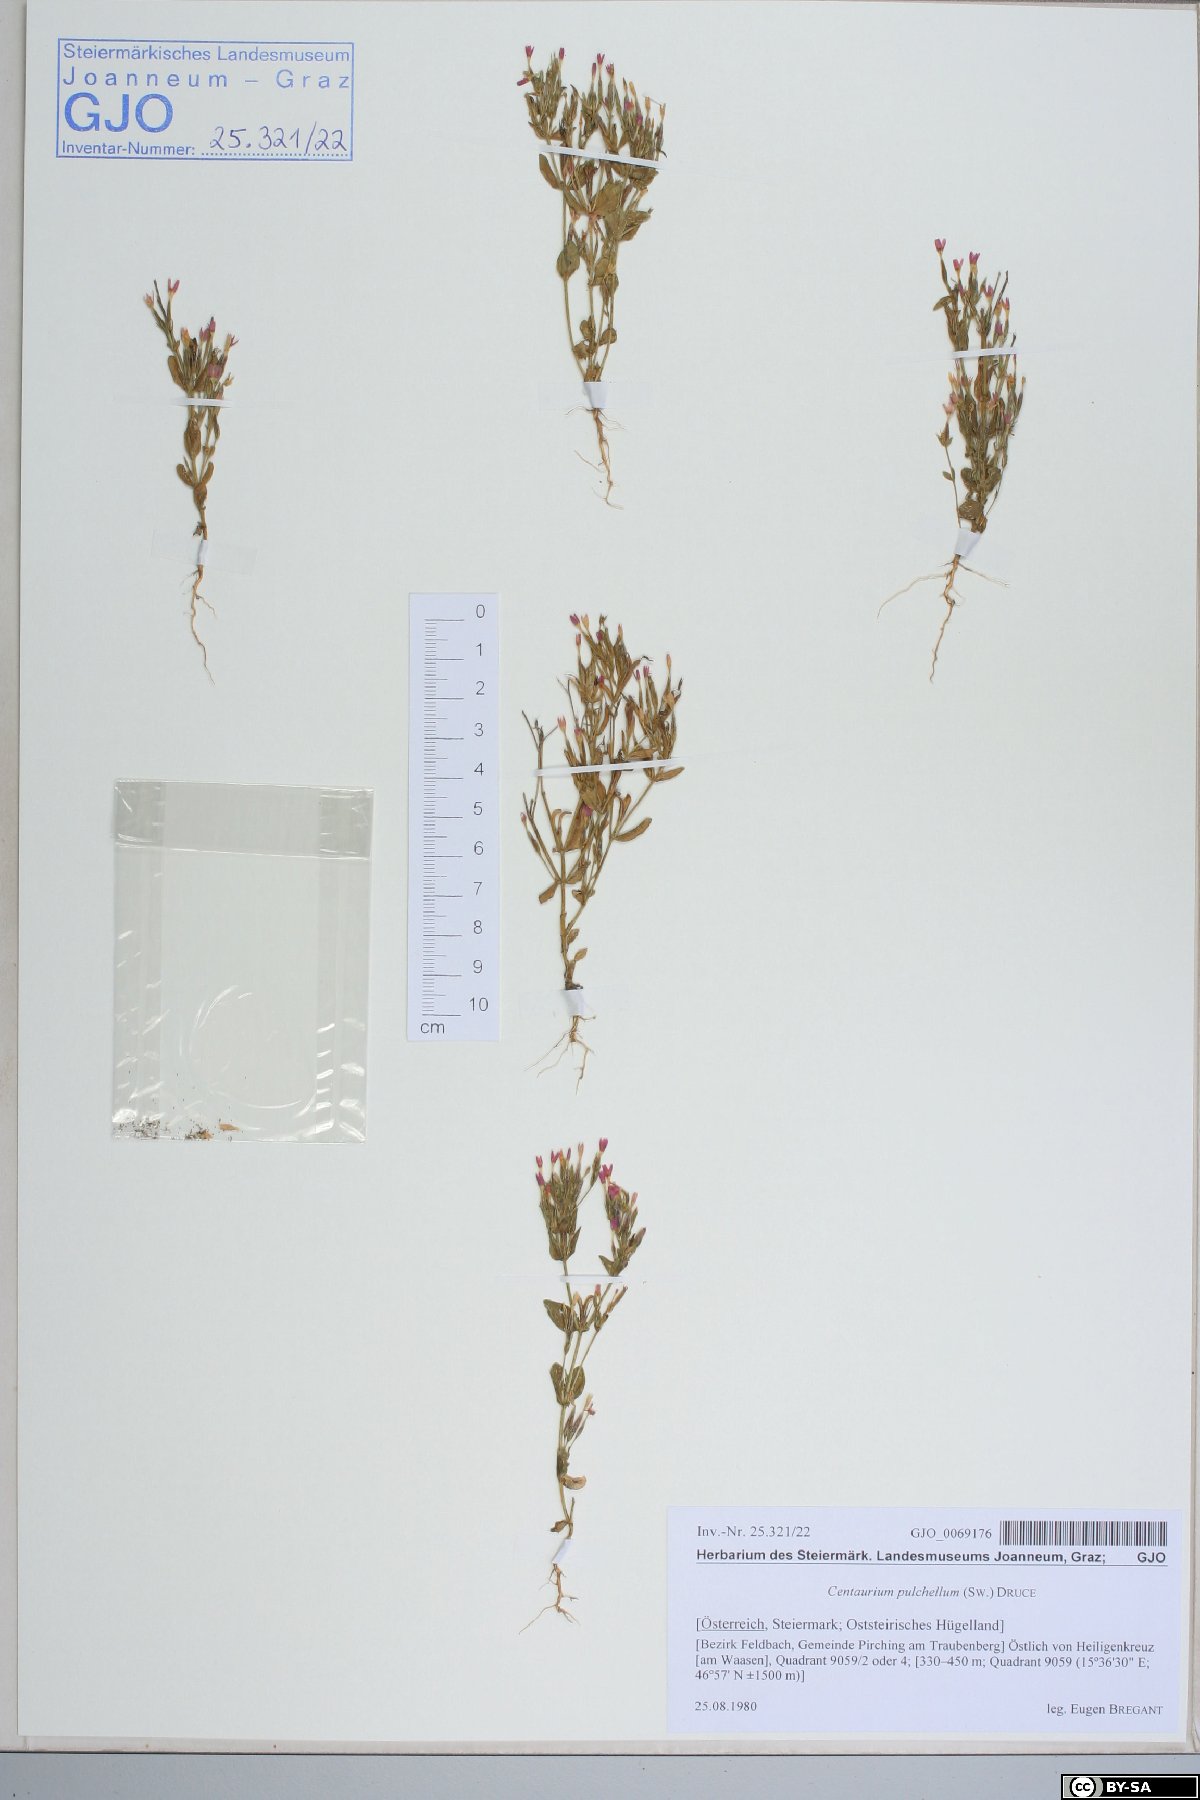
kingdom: Plantae
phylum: Tracheophyta
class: Magnoliopsida
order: Gentianales
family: Gentianaceae
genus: Centaurium
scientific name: Centaurium pulchellum
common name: Lesser centaury
